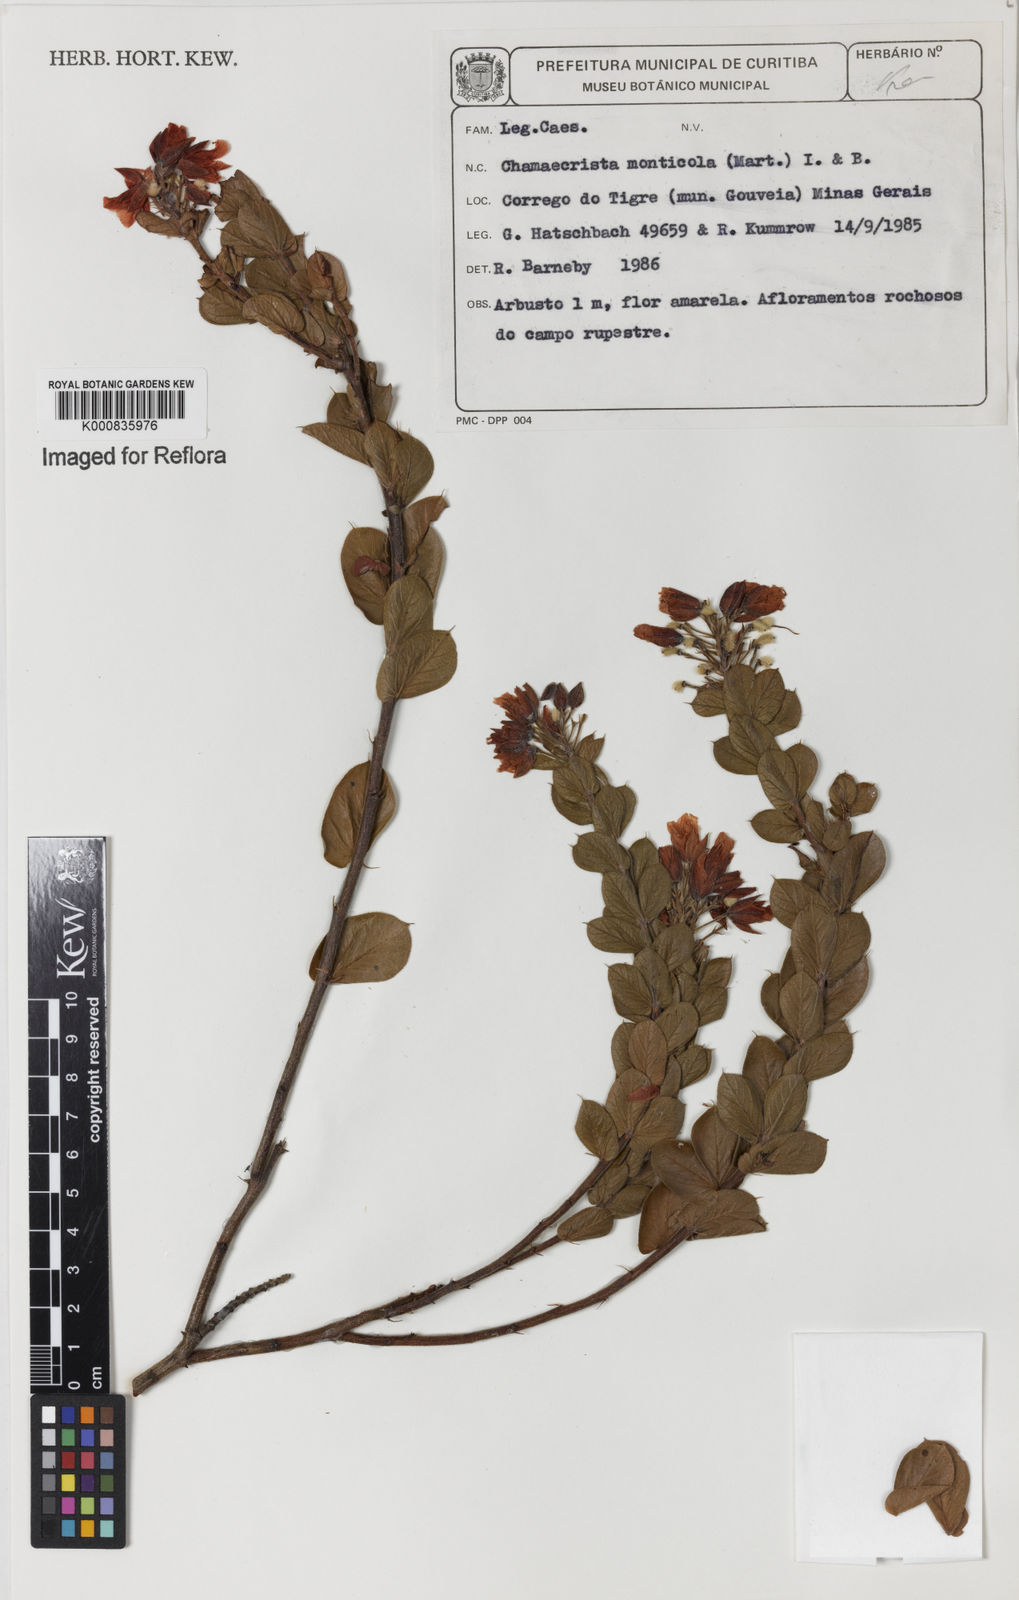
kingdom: Plantae
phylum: Tracheophyta
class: Magnoliopsida
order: Fabales
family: Fabaceae
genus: Chamaecrista
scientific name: Chamaecrista monticola
